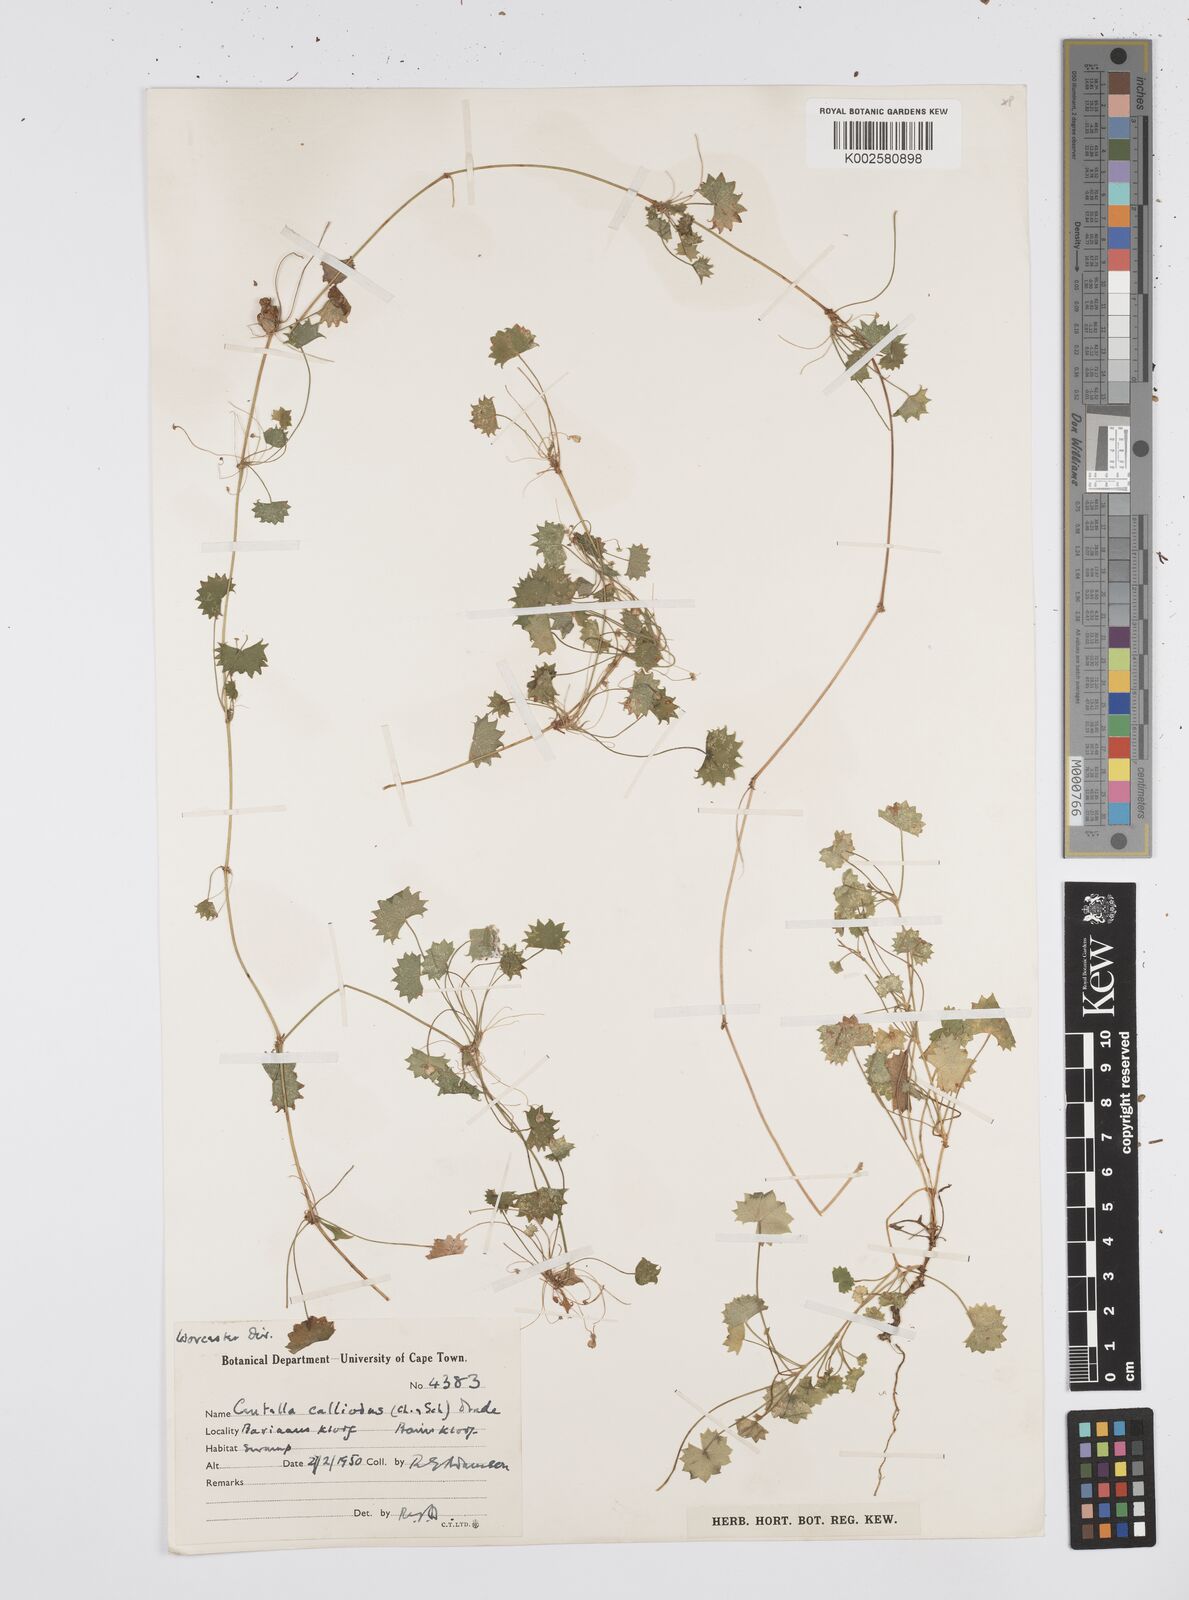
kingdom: Plantae
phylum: Tracheophyta
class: Magnoliopsida
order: Apiales
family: Apiaceae
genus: Centella
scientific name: Centella
